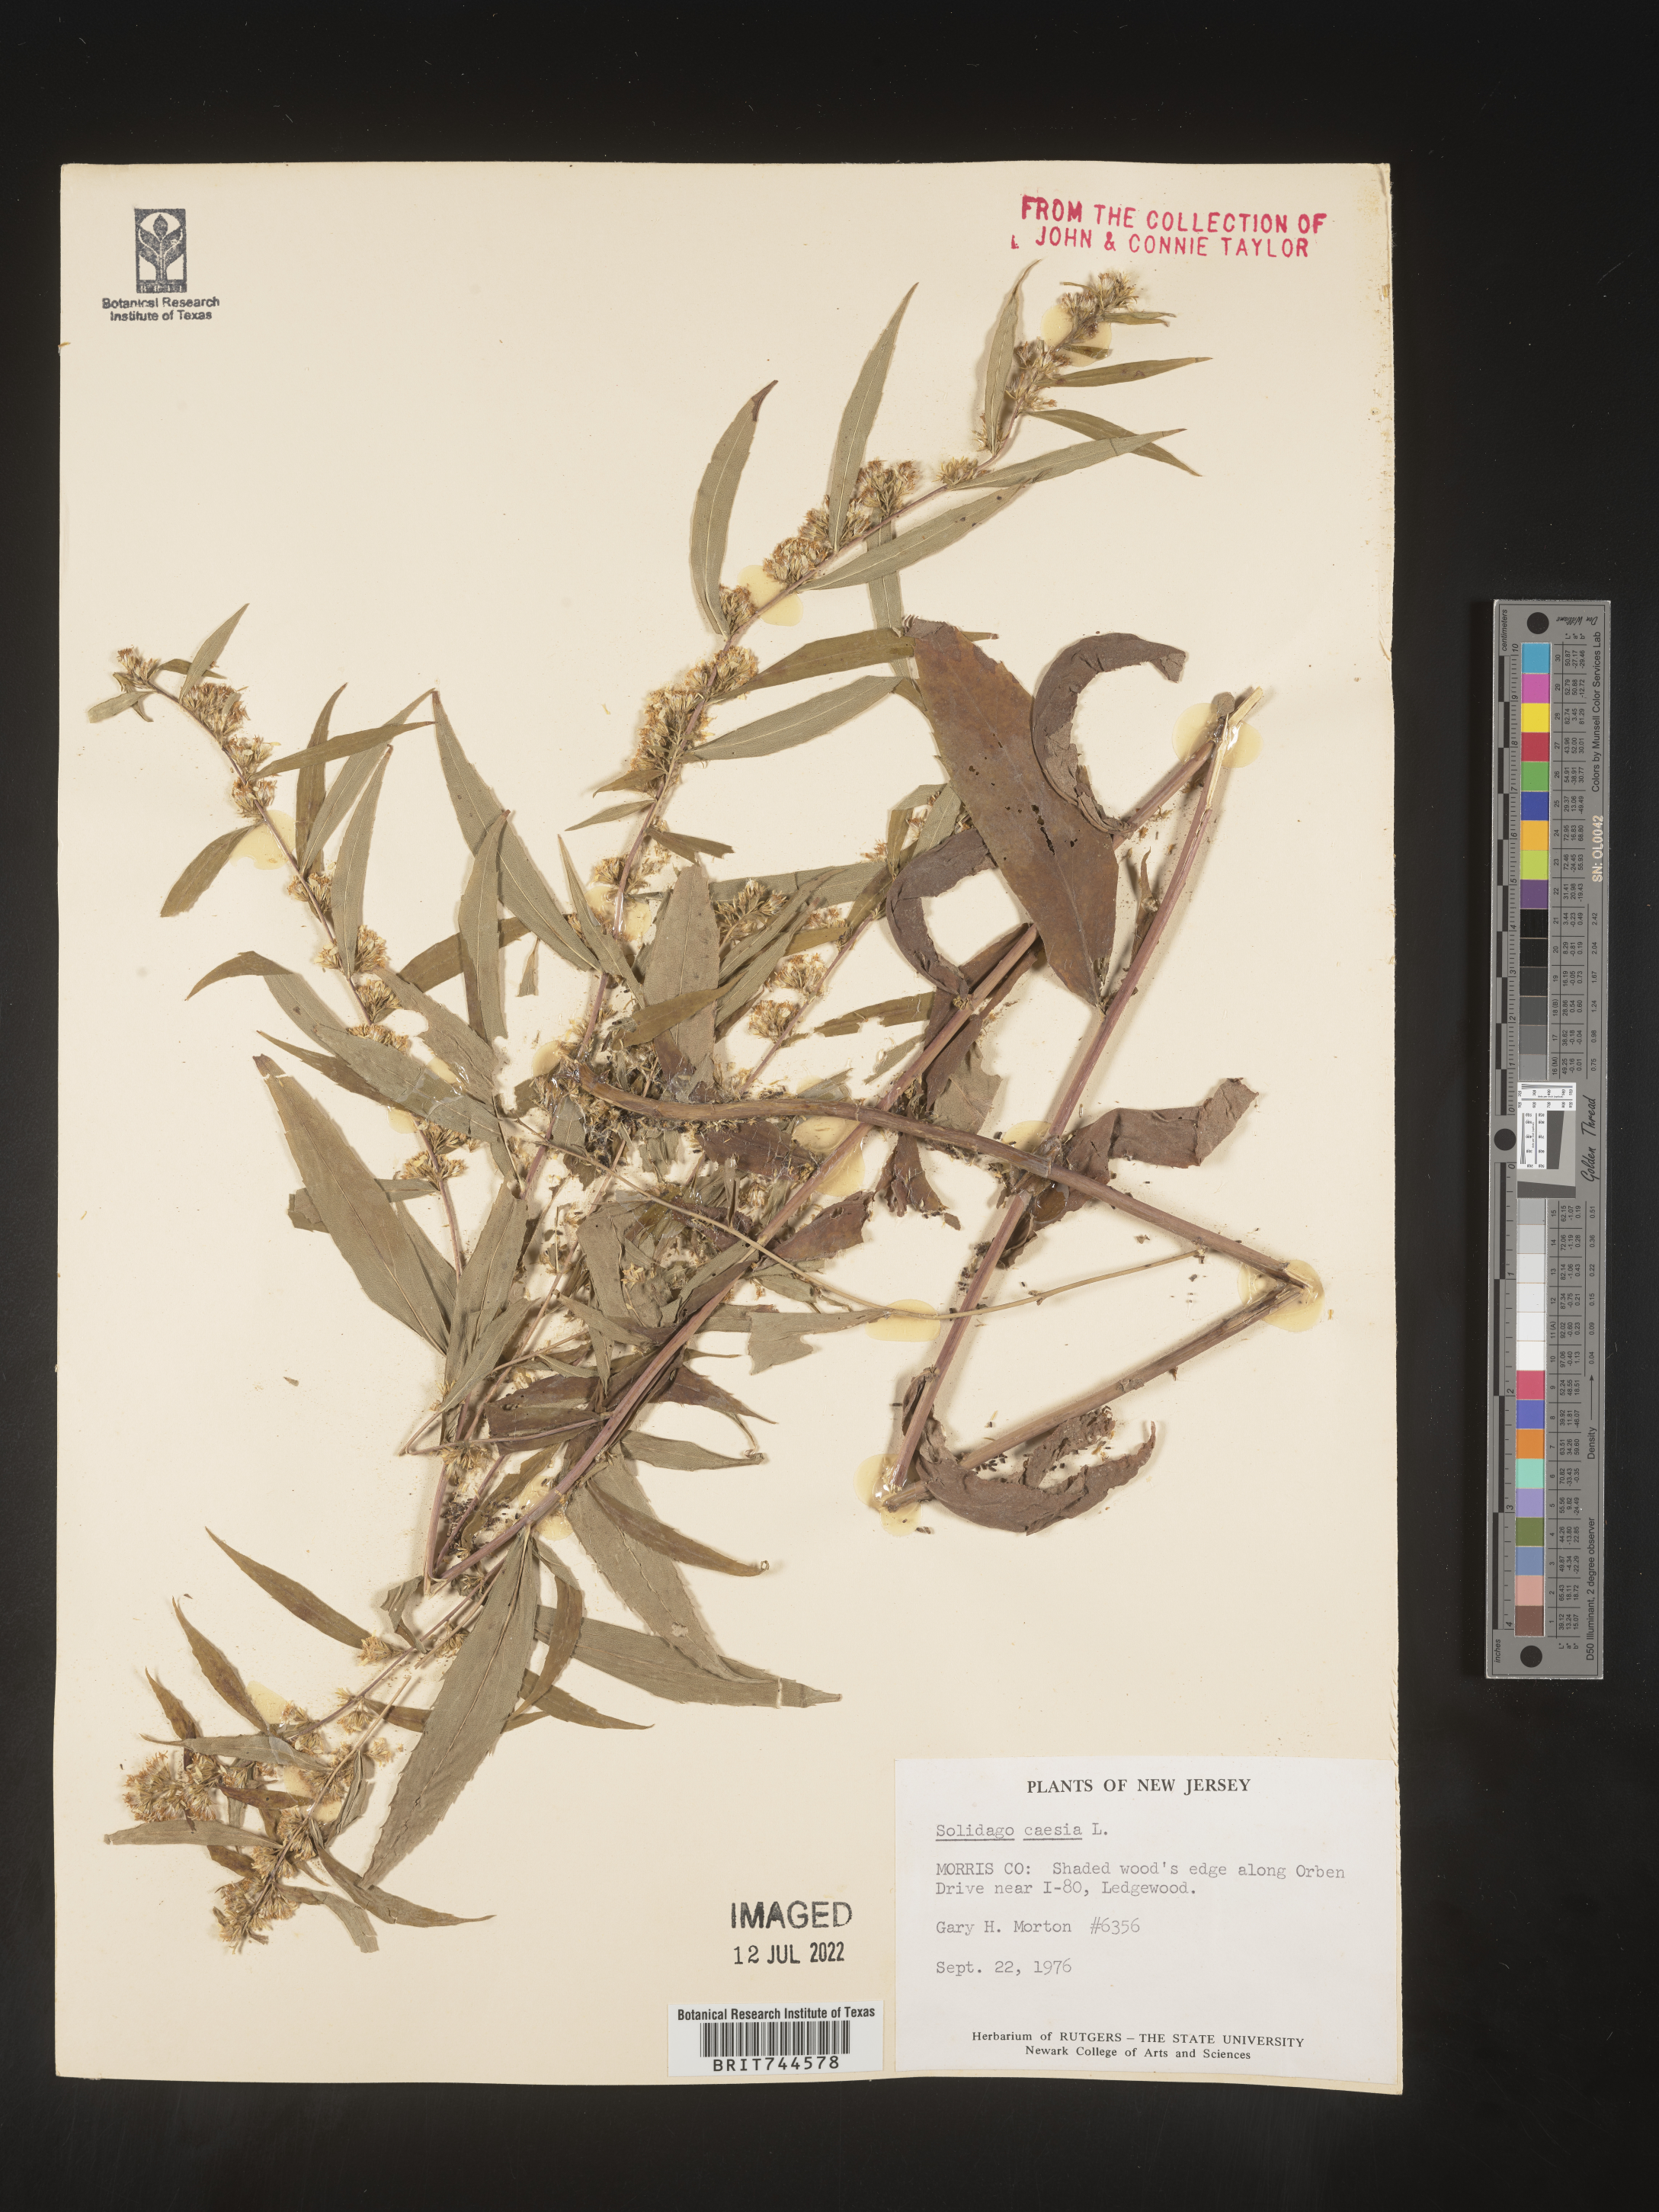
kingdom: Plantae
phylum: Tracheophyta
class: Magnoliopsida
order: Asterales
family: Asteraceae
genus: Solidago
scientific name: Solidago caesia
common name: Woodland goldenrod
